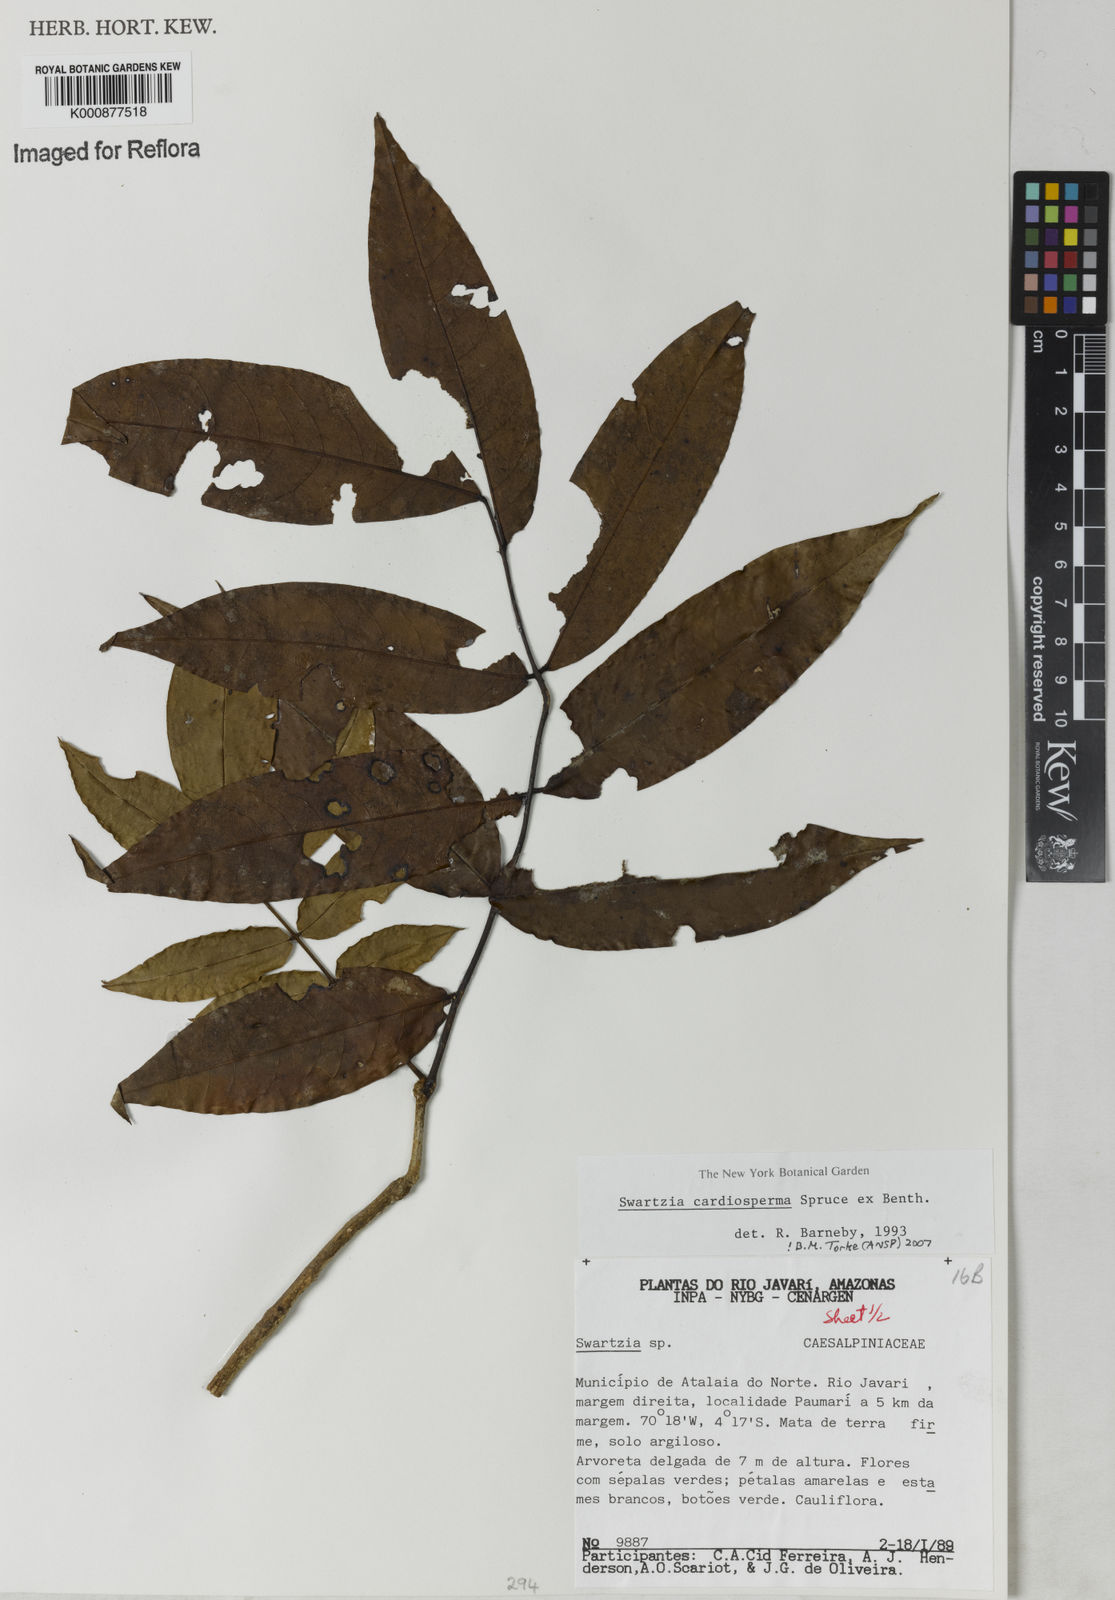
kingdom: Plantae
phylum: Tracheophyta
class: Magnoliopsida
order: Fabales
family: Fabaceae
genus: Swartzia
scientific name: Swartzia cardiosperma
